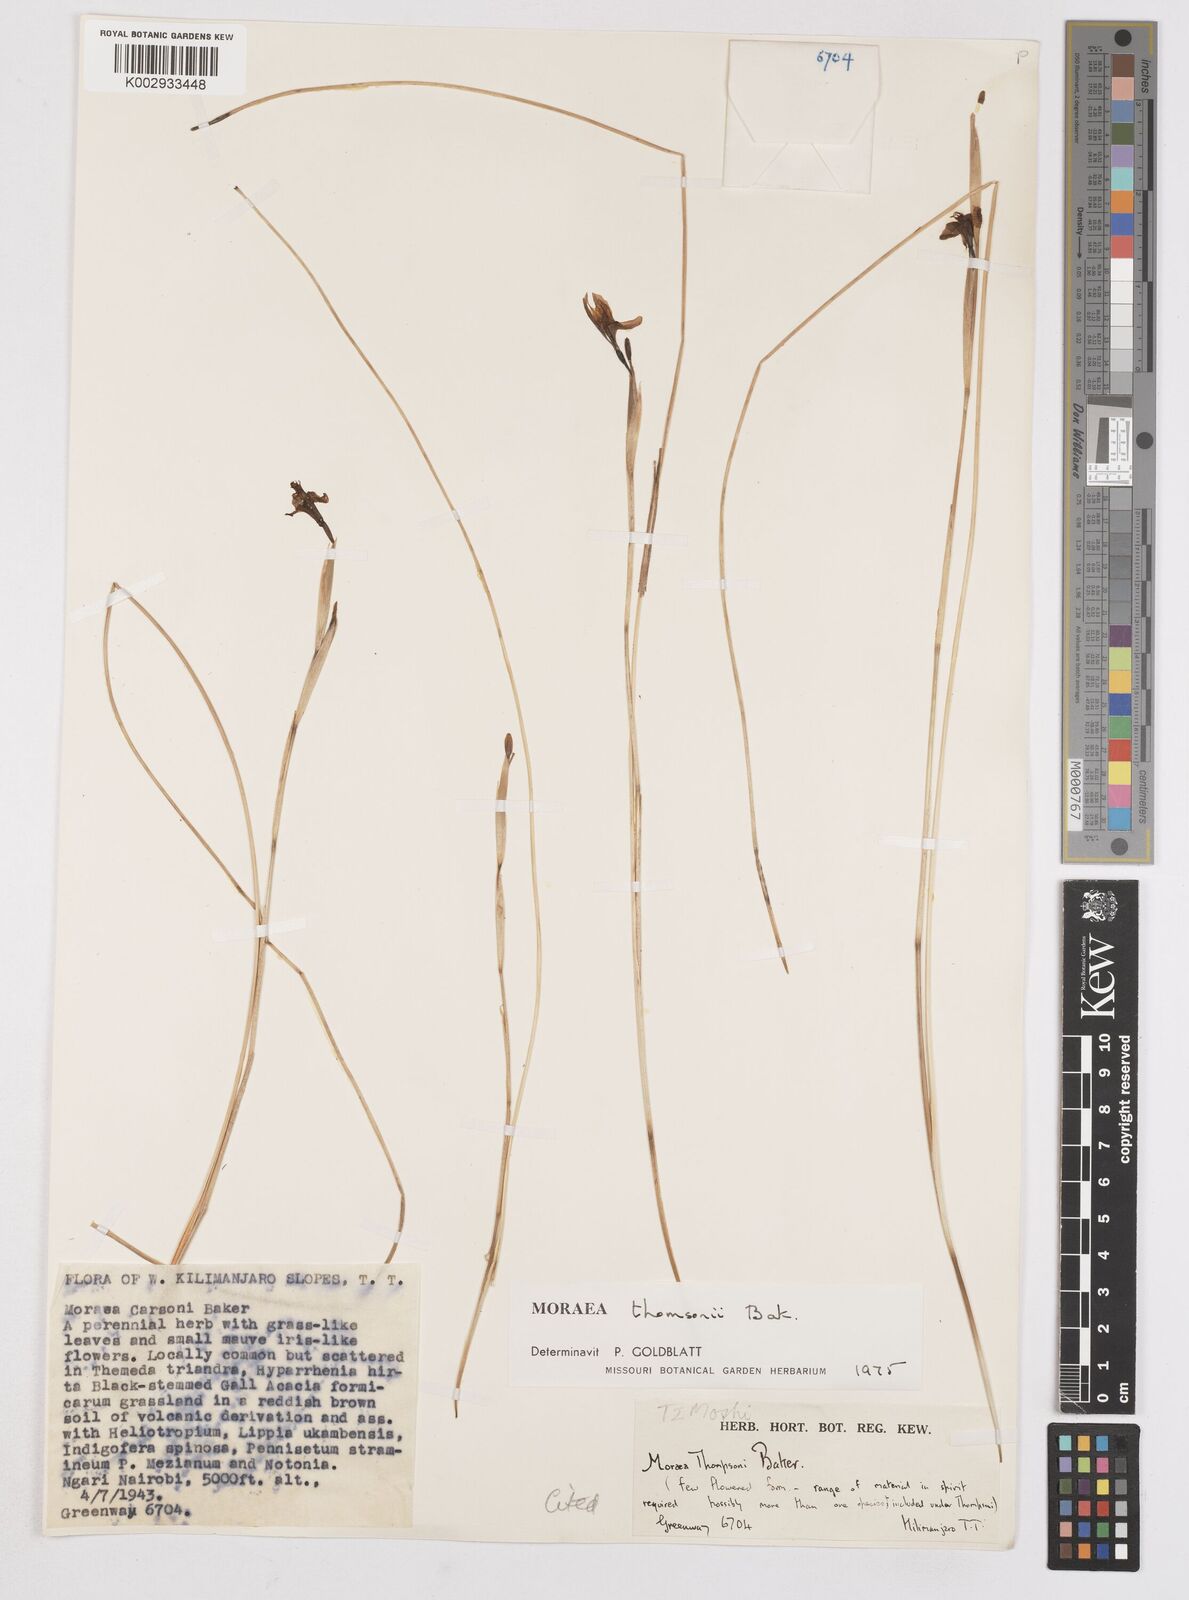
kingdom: Plantae
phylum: Tracheophyta
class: Liliopsida
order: Asparagales
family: Iridaceae
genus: Moraea
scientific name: Moraea stricta
